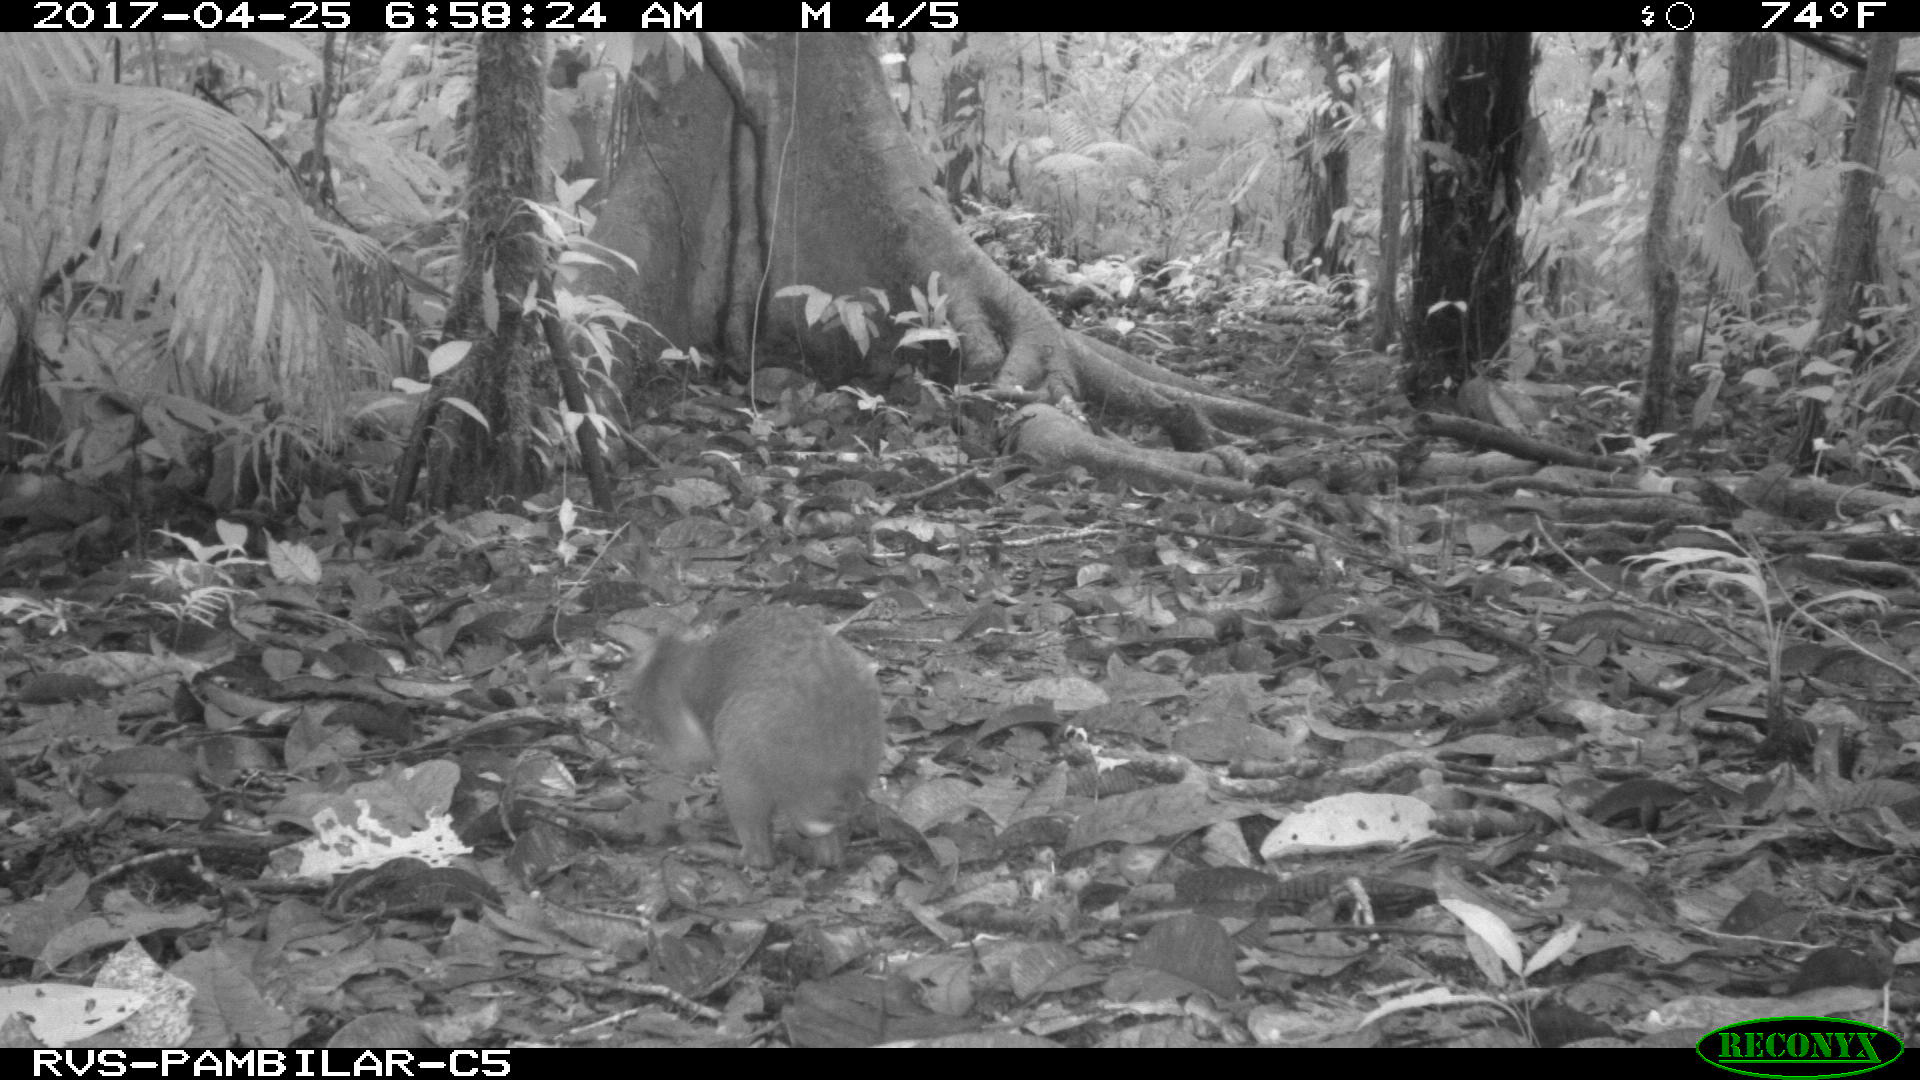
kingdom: Animalia
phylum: Chordata
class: Mammalia
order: Rodentia
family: Dasyproctidae
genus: Dasyprocta
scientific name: Dasyprocta punctata
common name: Central american agouti
